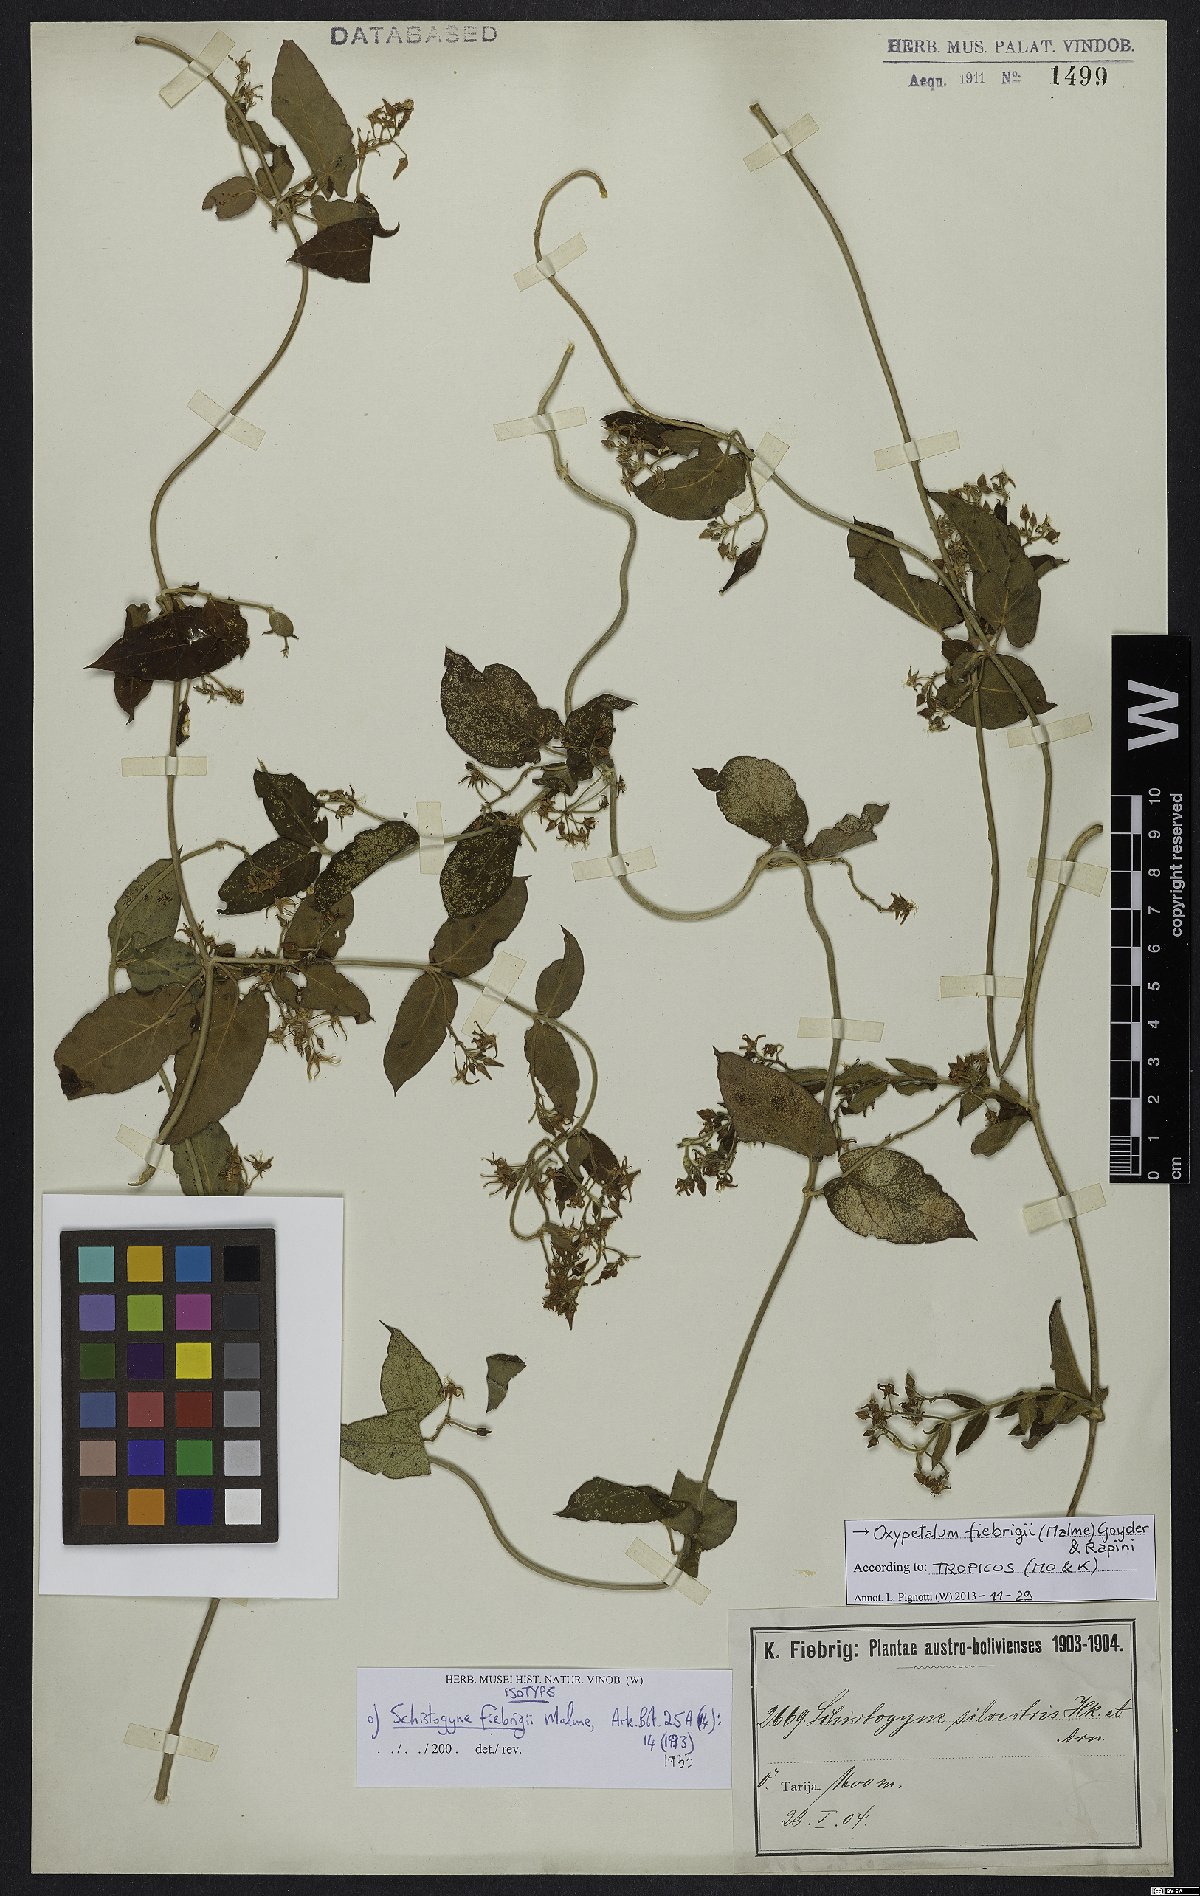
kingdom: Plantae
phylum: Tracheophyta
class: Magnoliopsida
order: Gentianales
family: Apocynaceae
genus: Oxypetalum
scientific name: Oxypetalum fiebrigii
